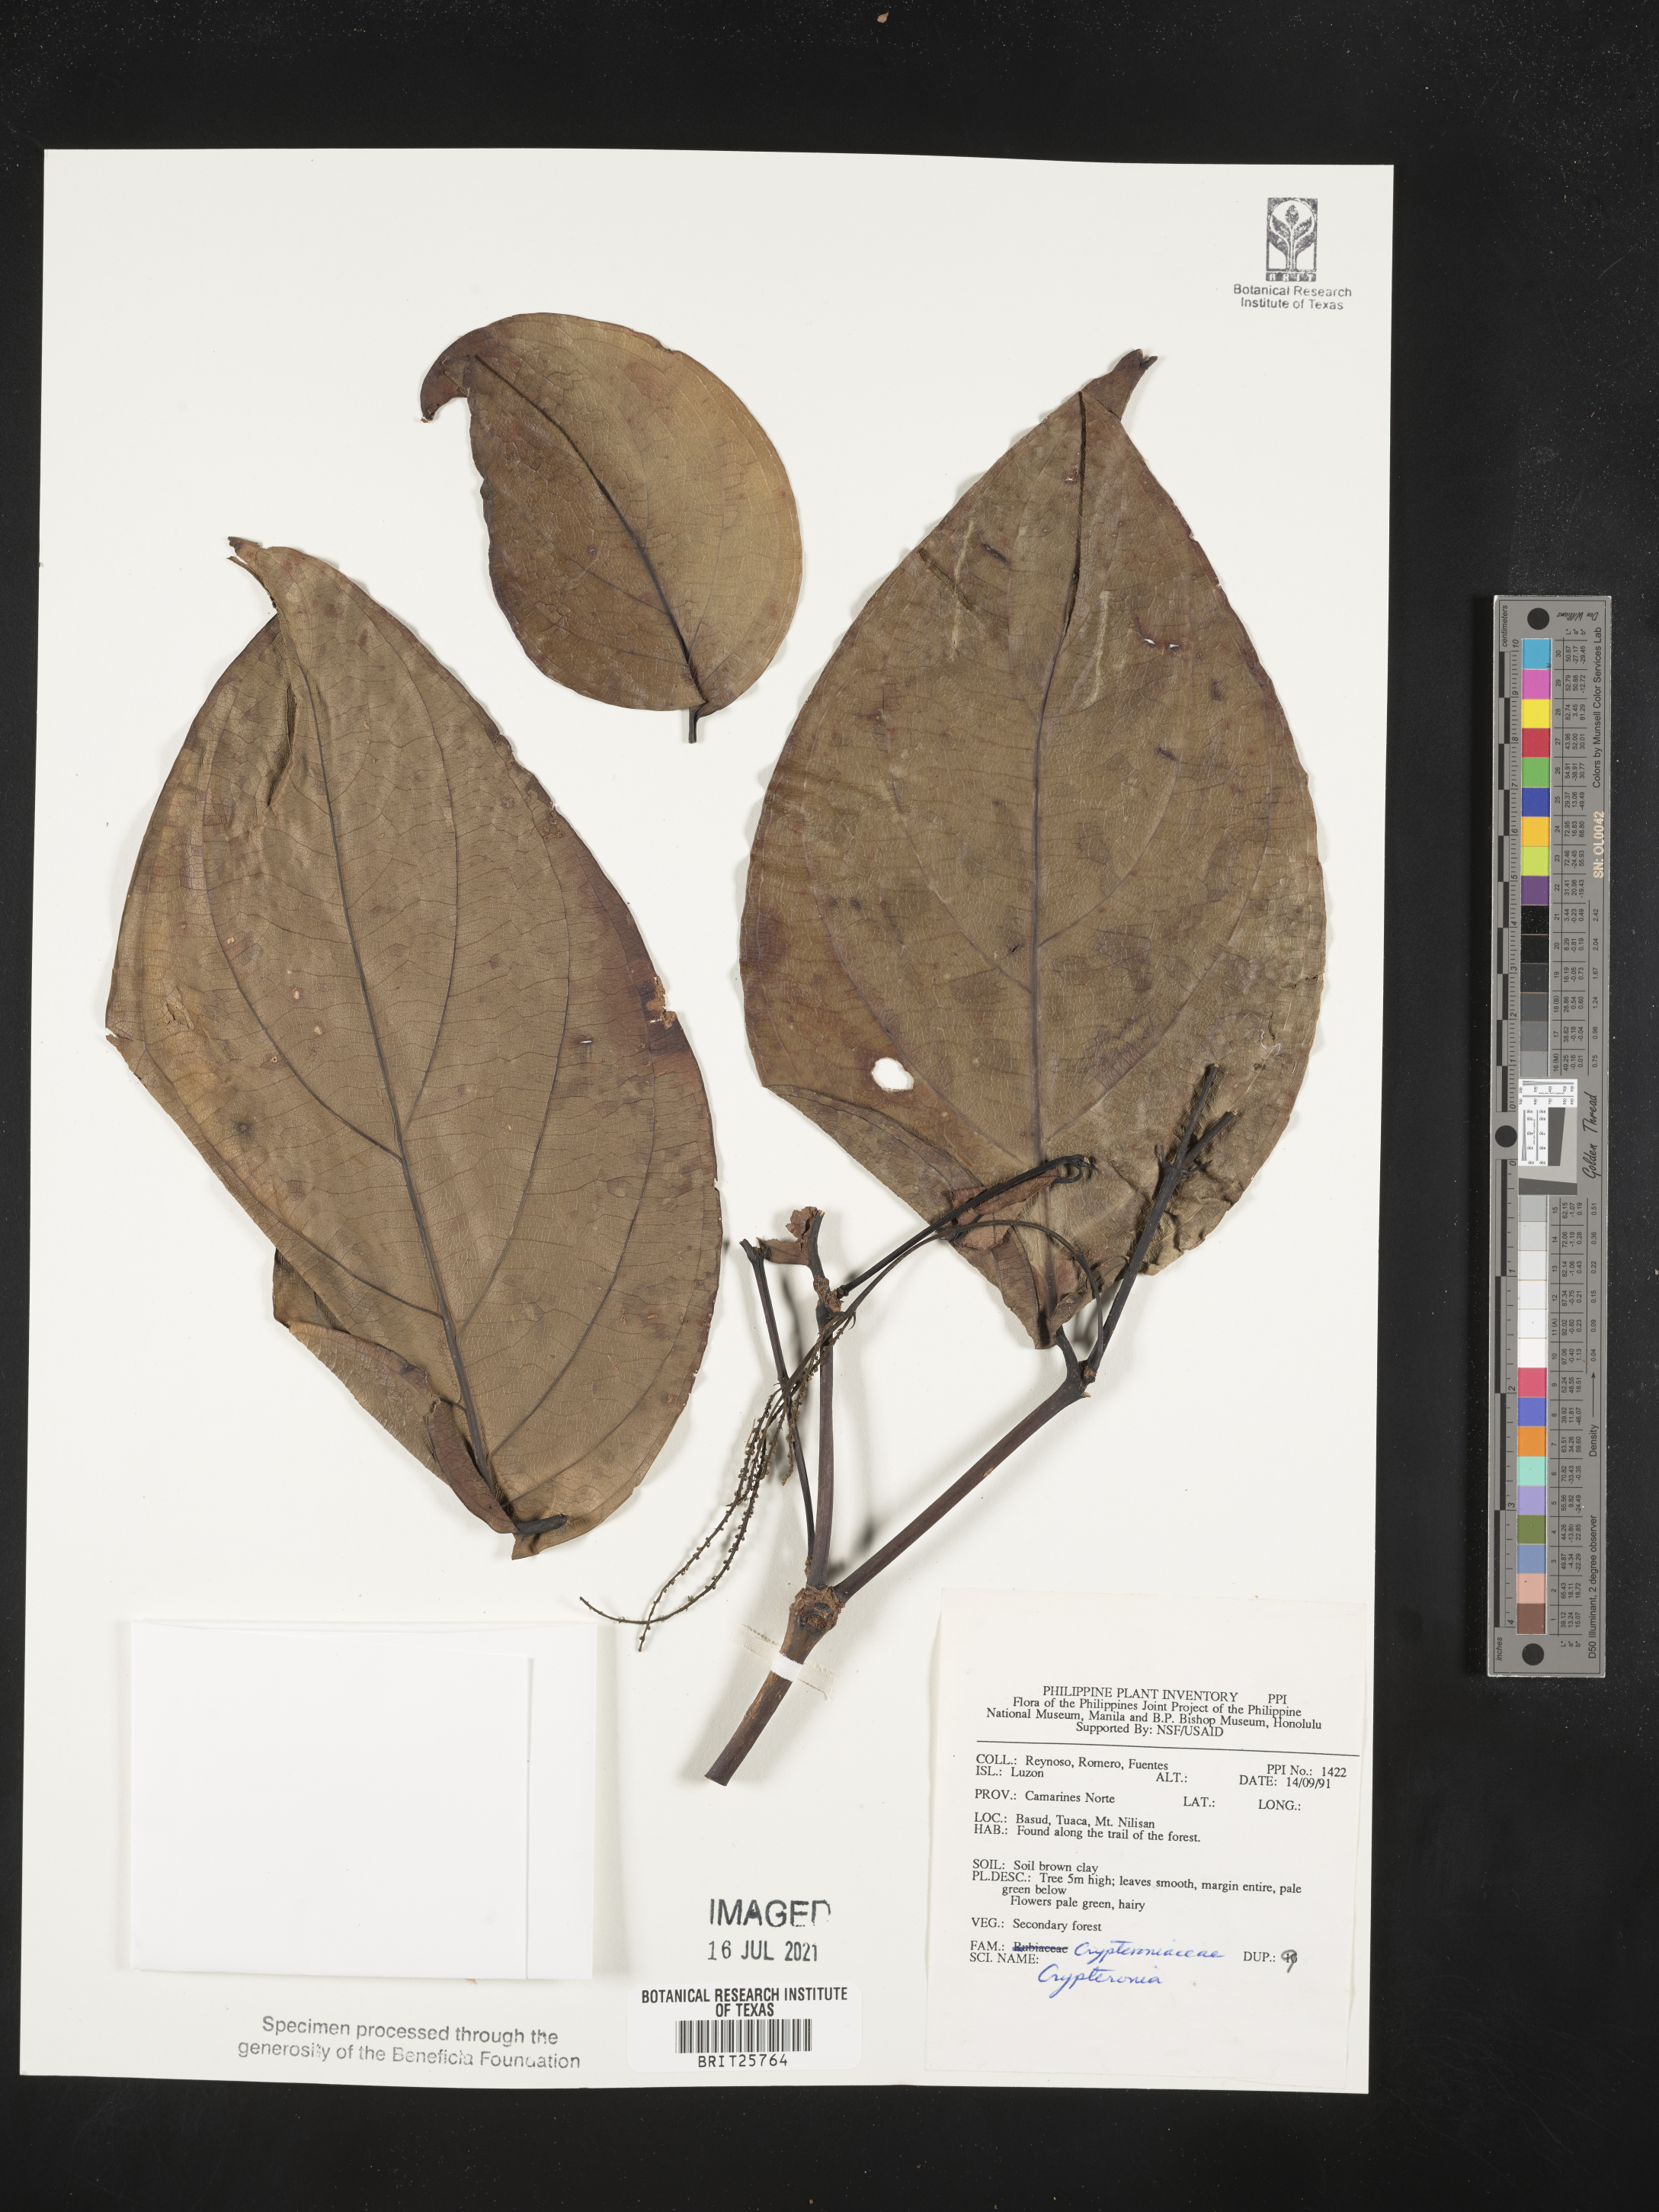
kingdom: Plantae
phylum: Tracheophyta
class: Magnoliopsida
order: Myrtales
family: Crypteroniaceae
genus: Crypteronia
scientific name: Crypteronia
